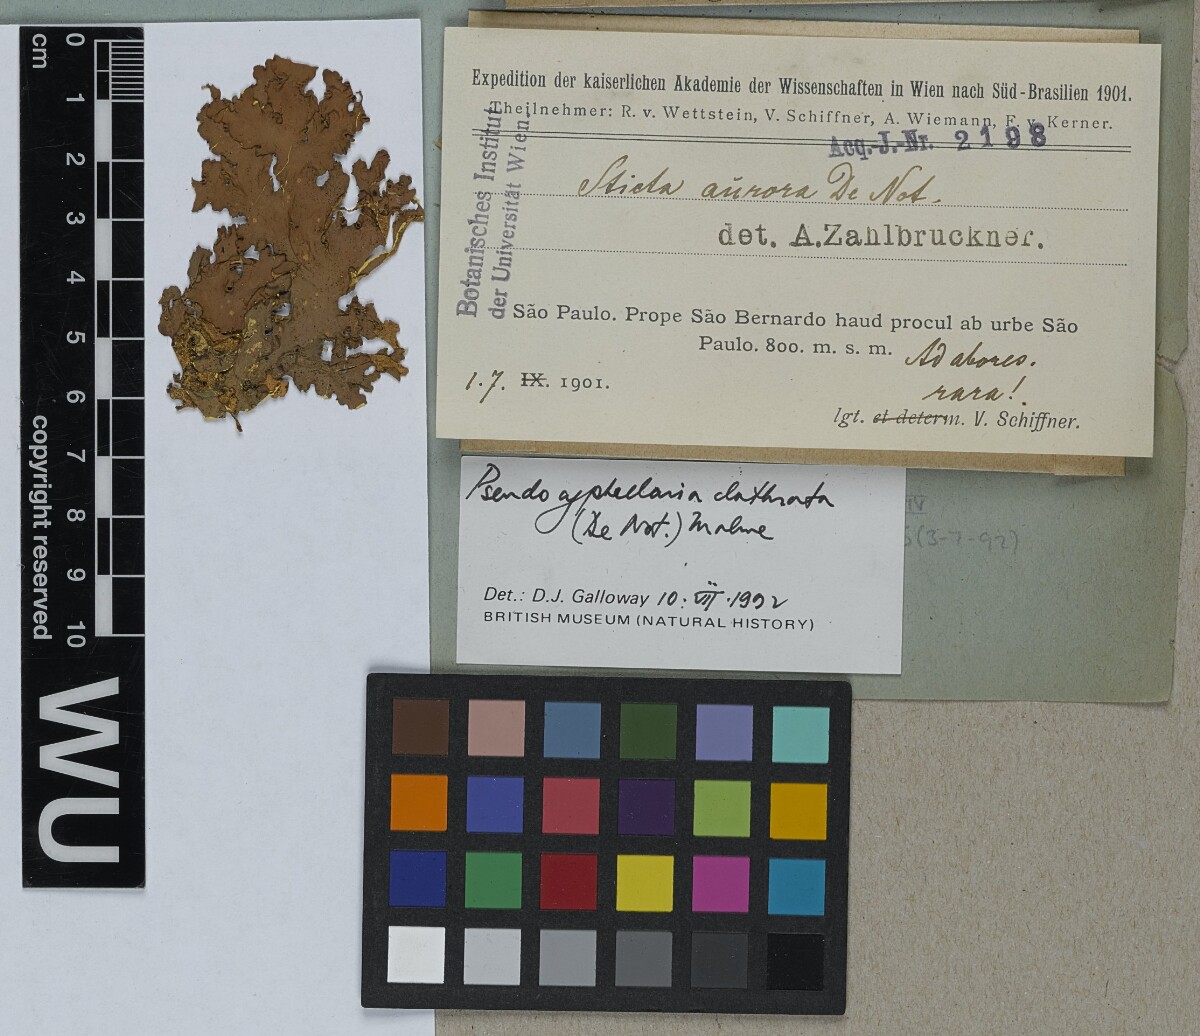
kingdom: Fungi
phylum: Ascomycota
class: Lecanoromycetes
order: Peltigerales
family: Lobariaceae
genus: Pseudocyphellaria
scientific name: Pseudocyphellaria clathrata
